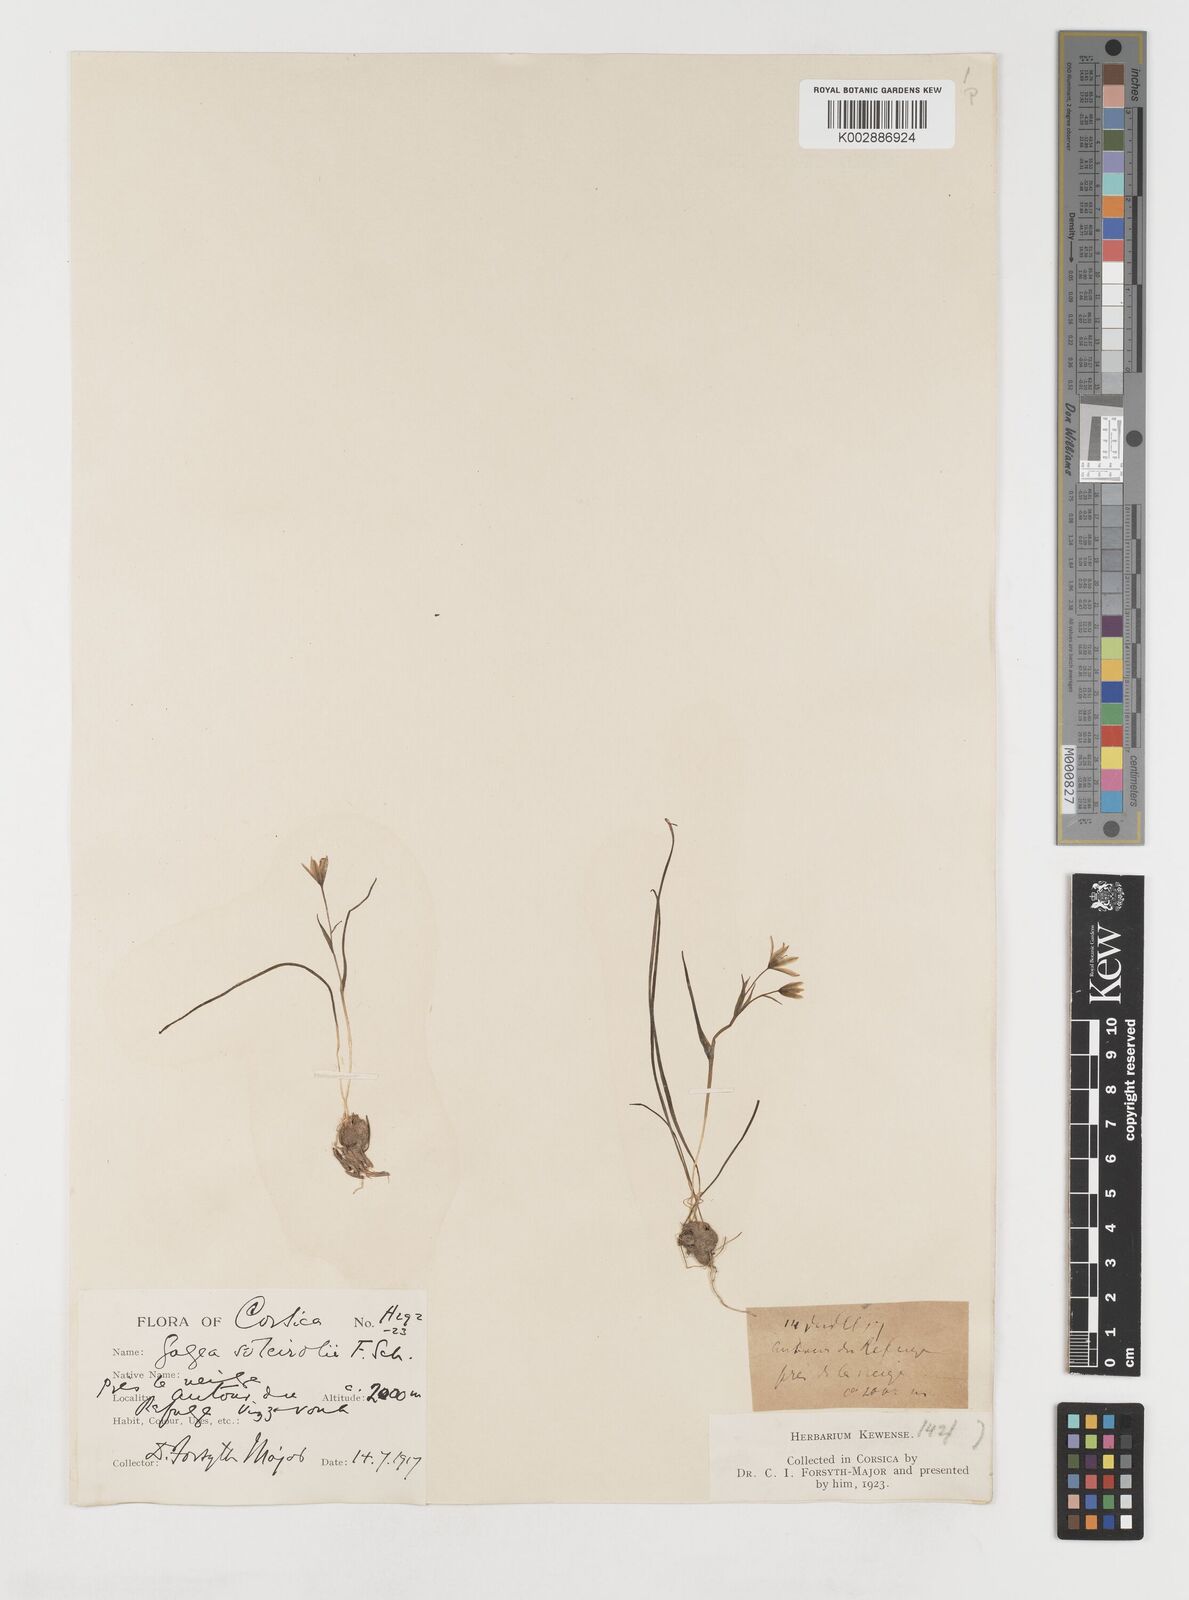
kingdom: Plantae
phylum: Tracheophyta
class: Liliopsida
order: Liliales
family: Liliaceae
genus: Gagea
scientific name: Gagea soleirolii
